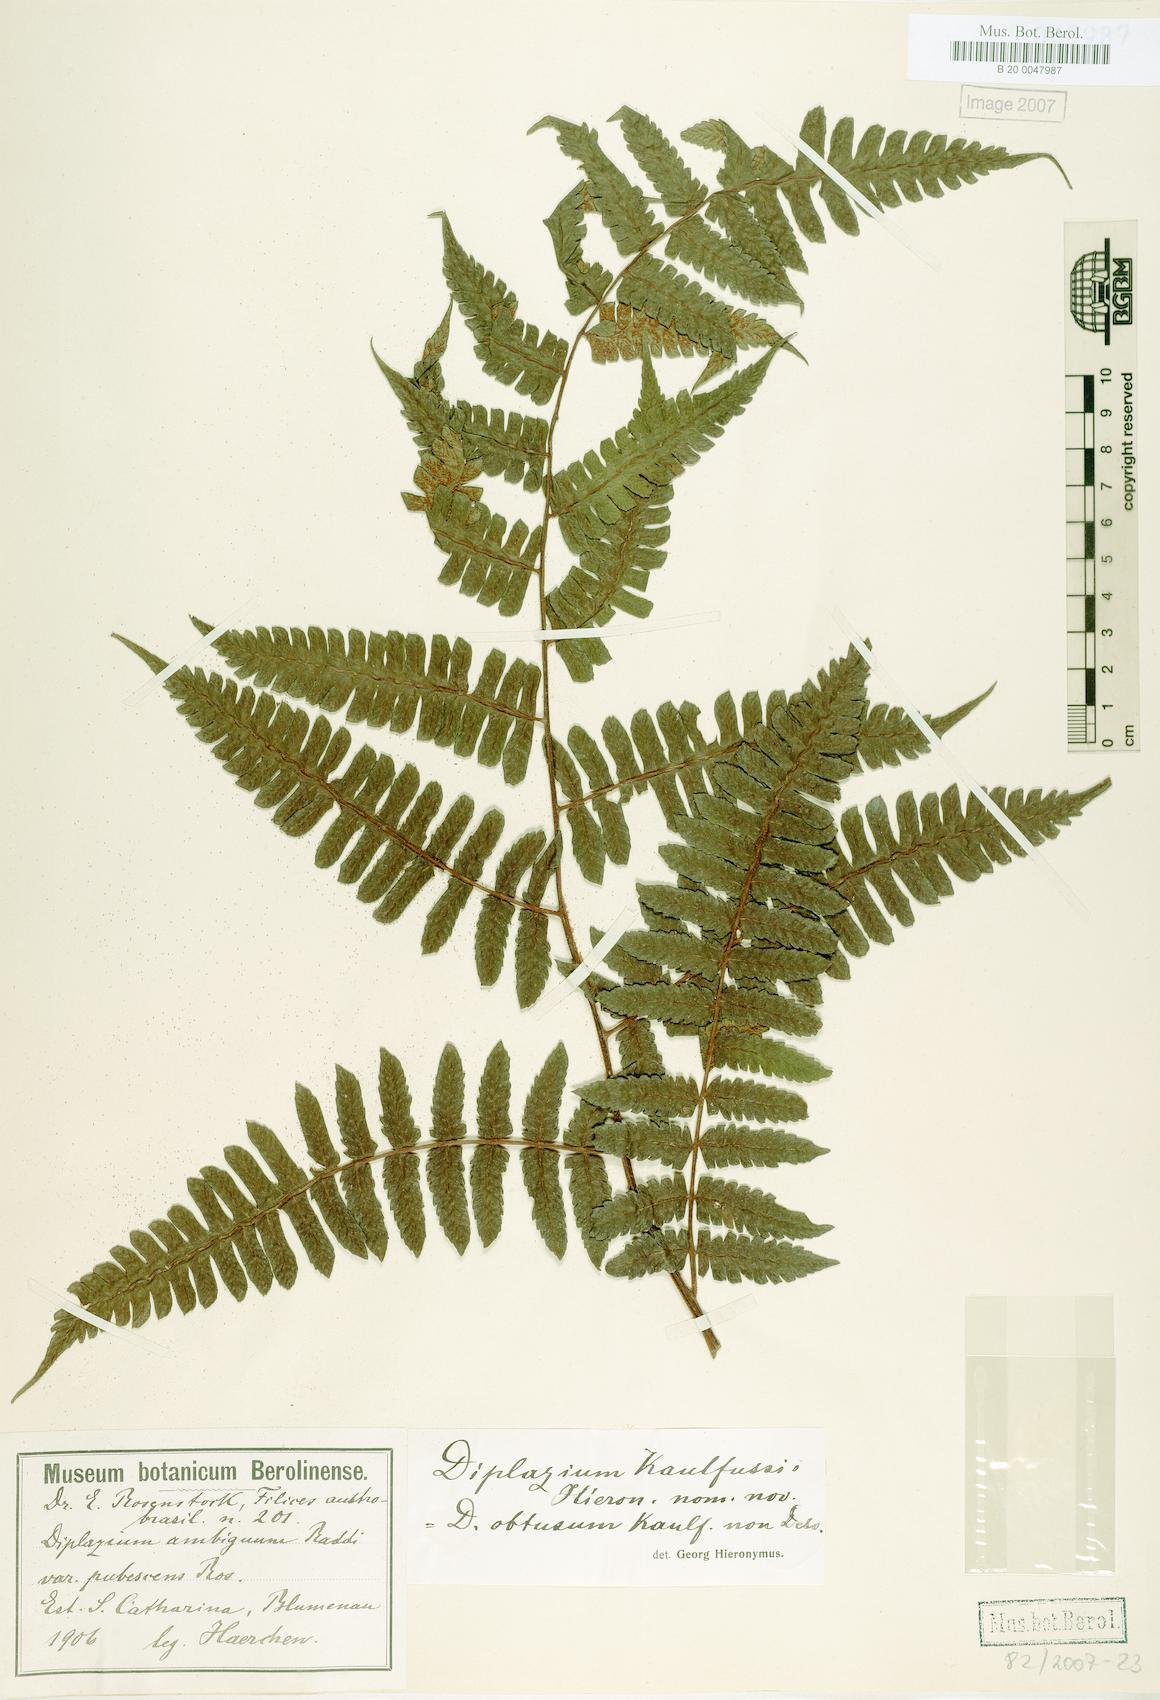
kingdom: Plantae
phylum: Tracheophyta
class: Polypodiopsida
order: Polypodiales
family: Athyriaceae
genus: Diplazium
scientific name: Diplazium expansum
